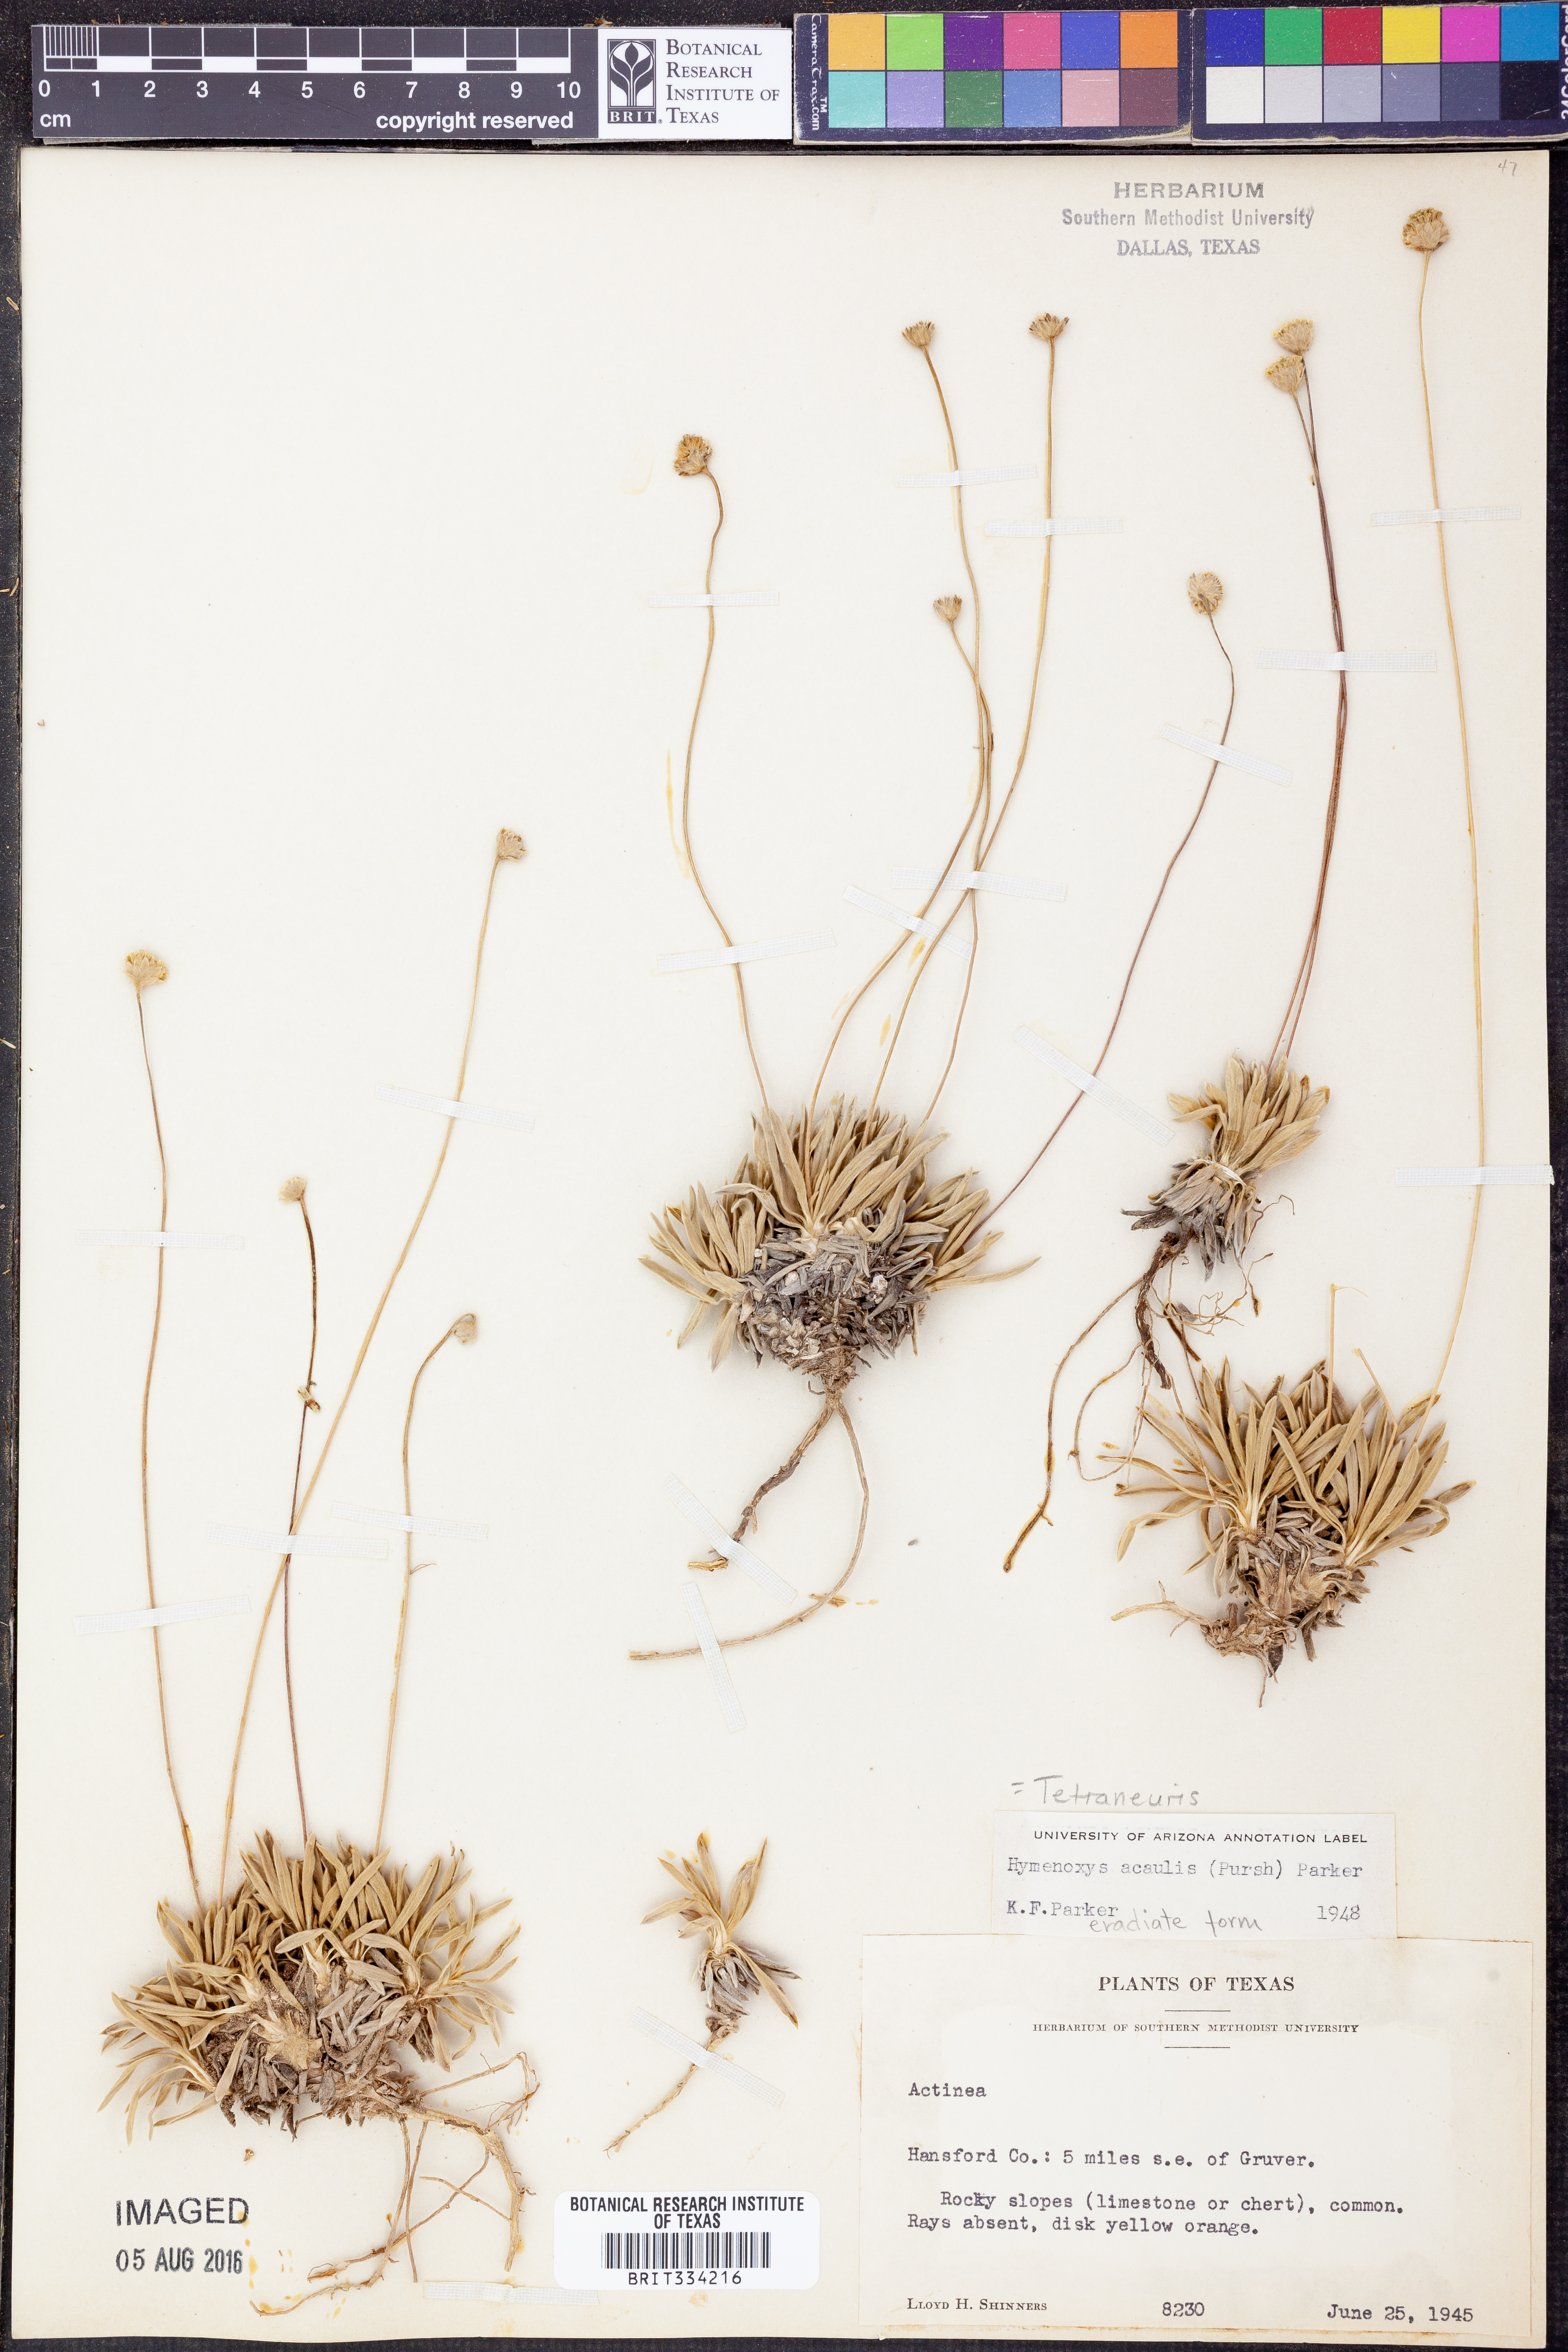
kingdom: Plantae
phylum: Tracheophyta
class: Magnoliopsida
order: Asterales
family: Asteraceae
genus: Tetraneuris
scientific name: Tetraneuris acaulis
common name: Butte marigold
